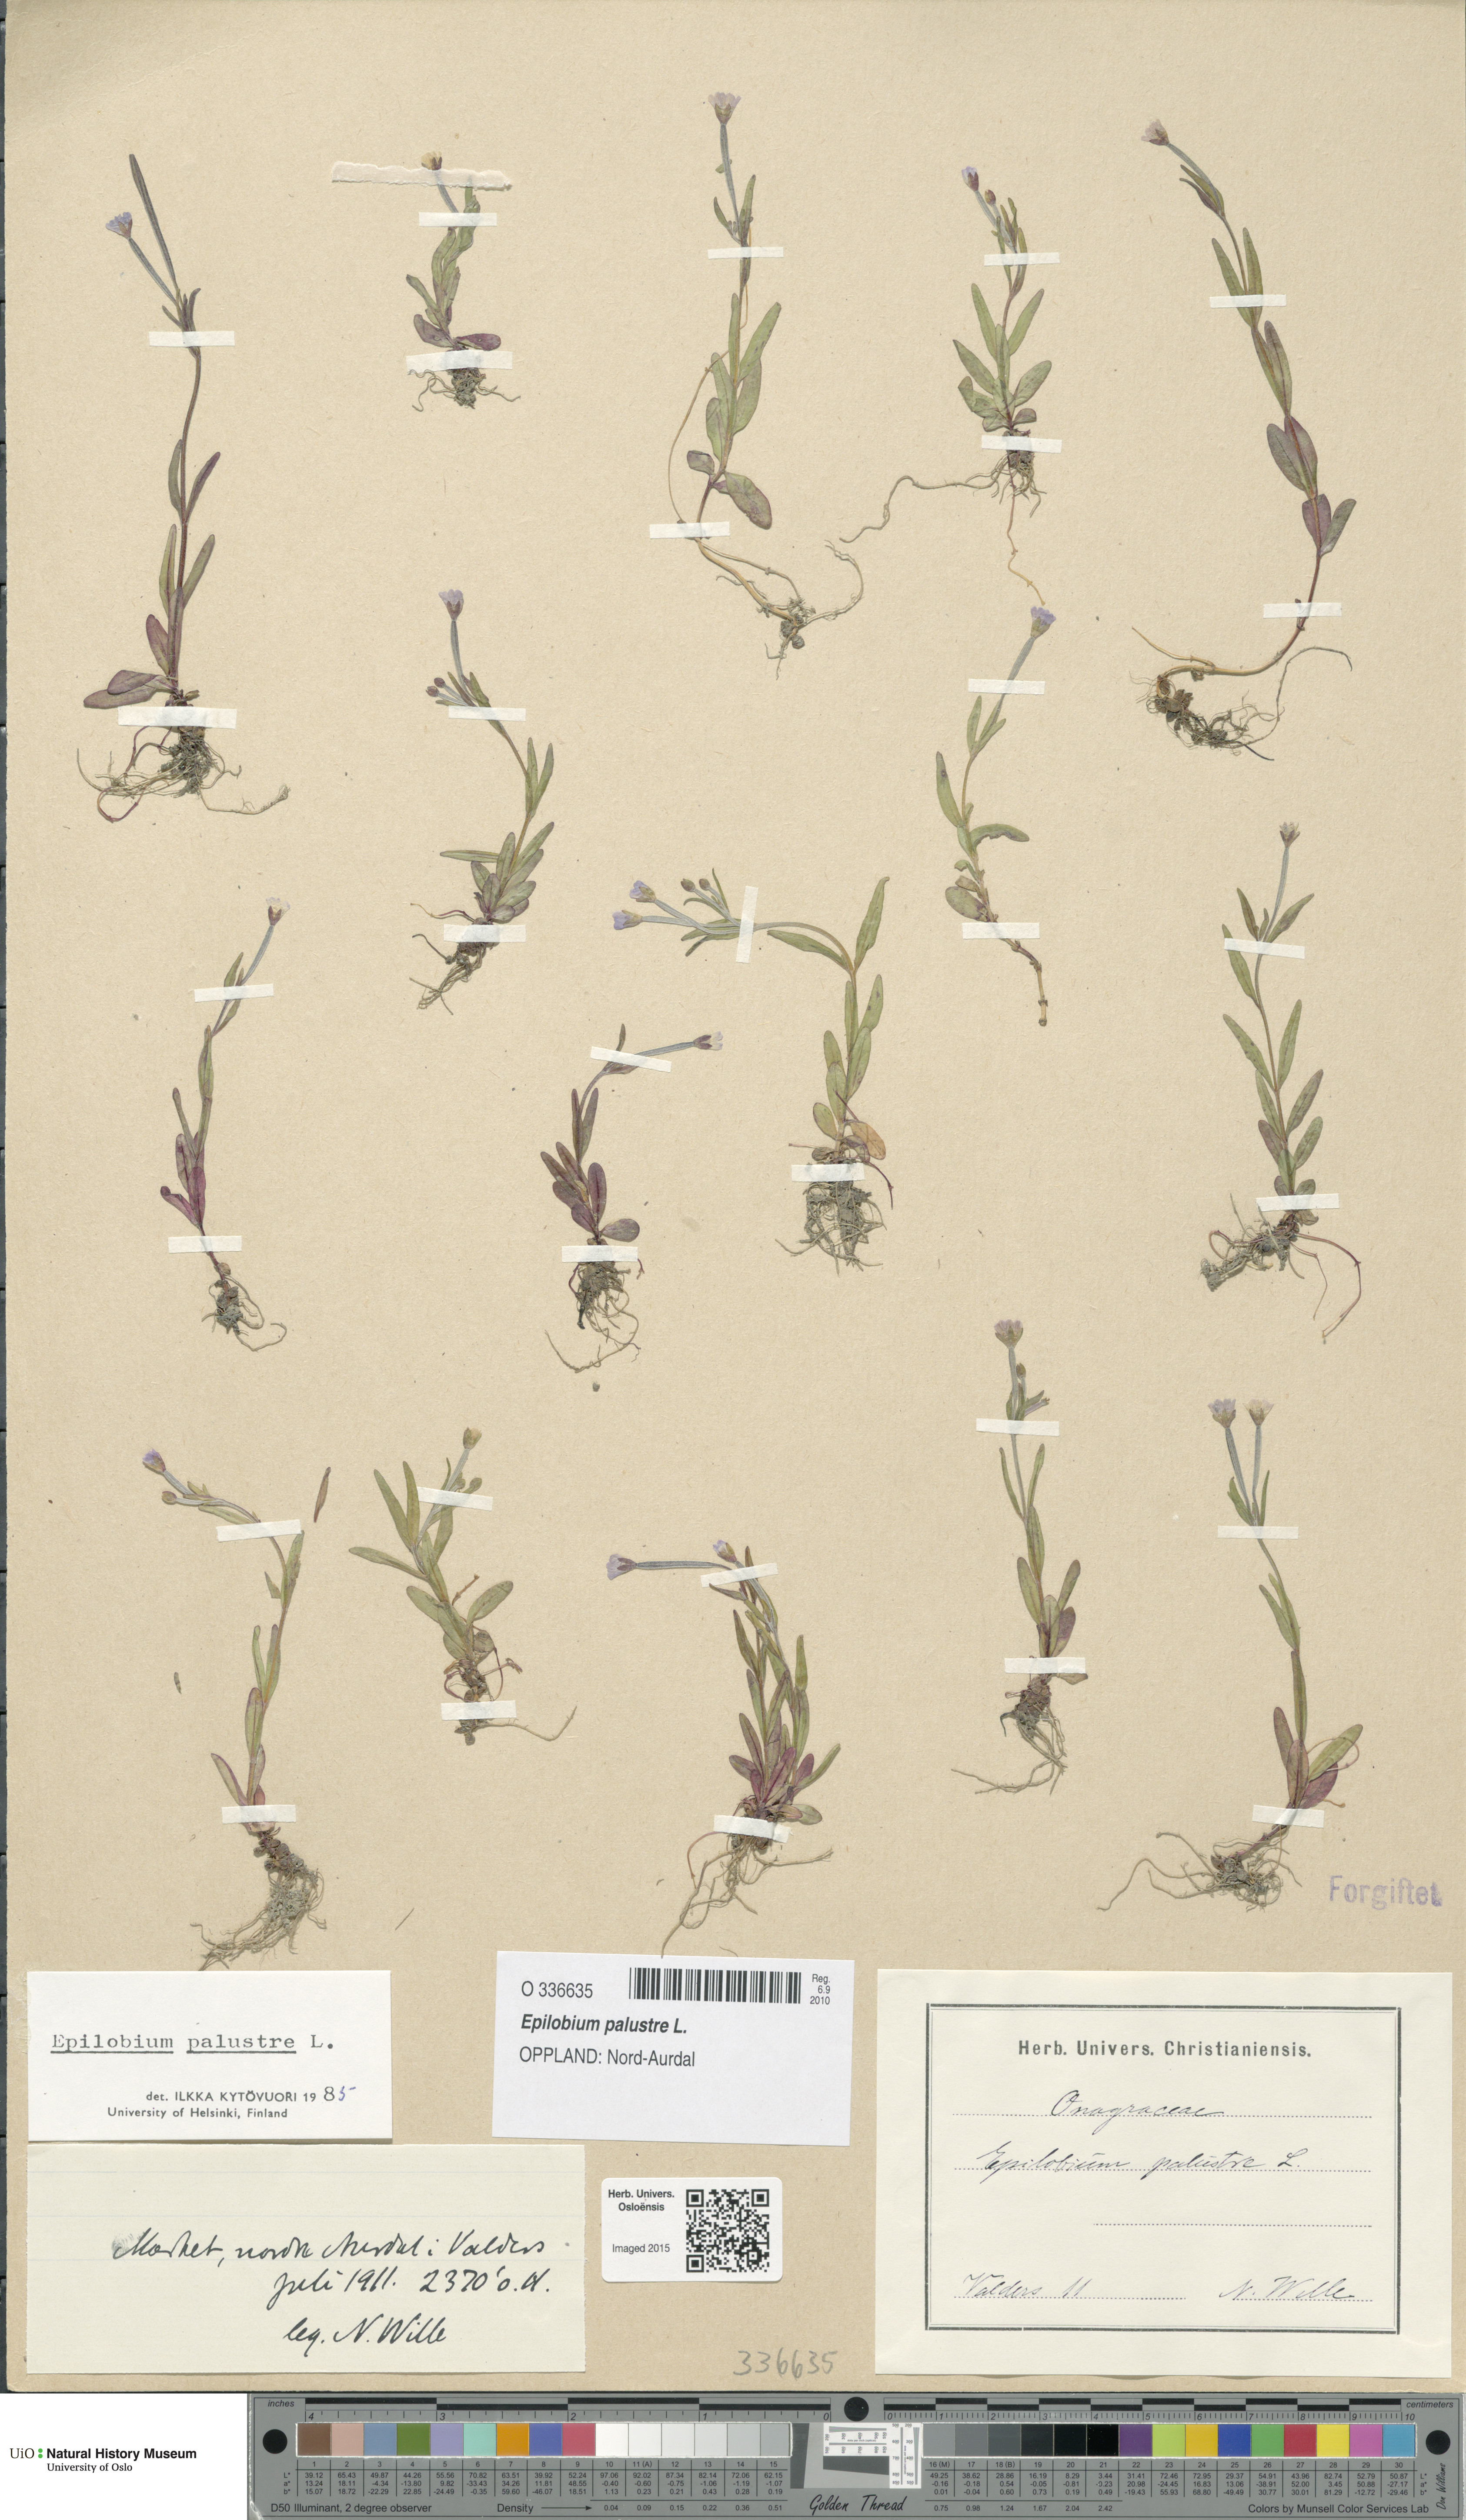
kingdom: Plantae
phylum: Tracheophyta
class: Magnoliopsida
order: Myrtales
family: Onagraceae
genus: Epilobium
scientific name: Epilobium palustre
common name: Marsh willowherb
